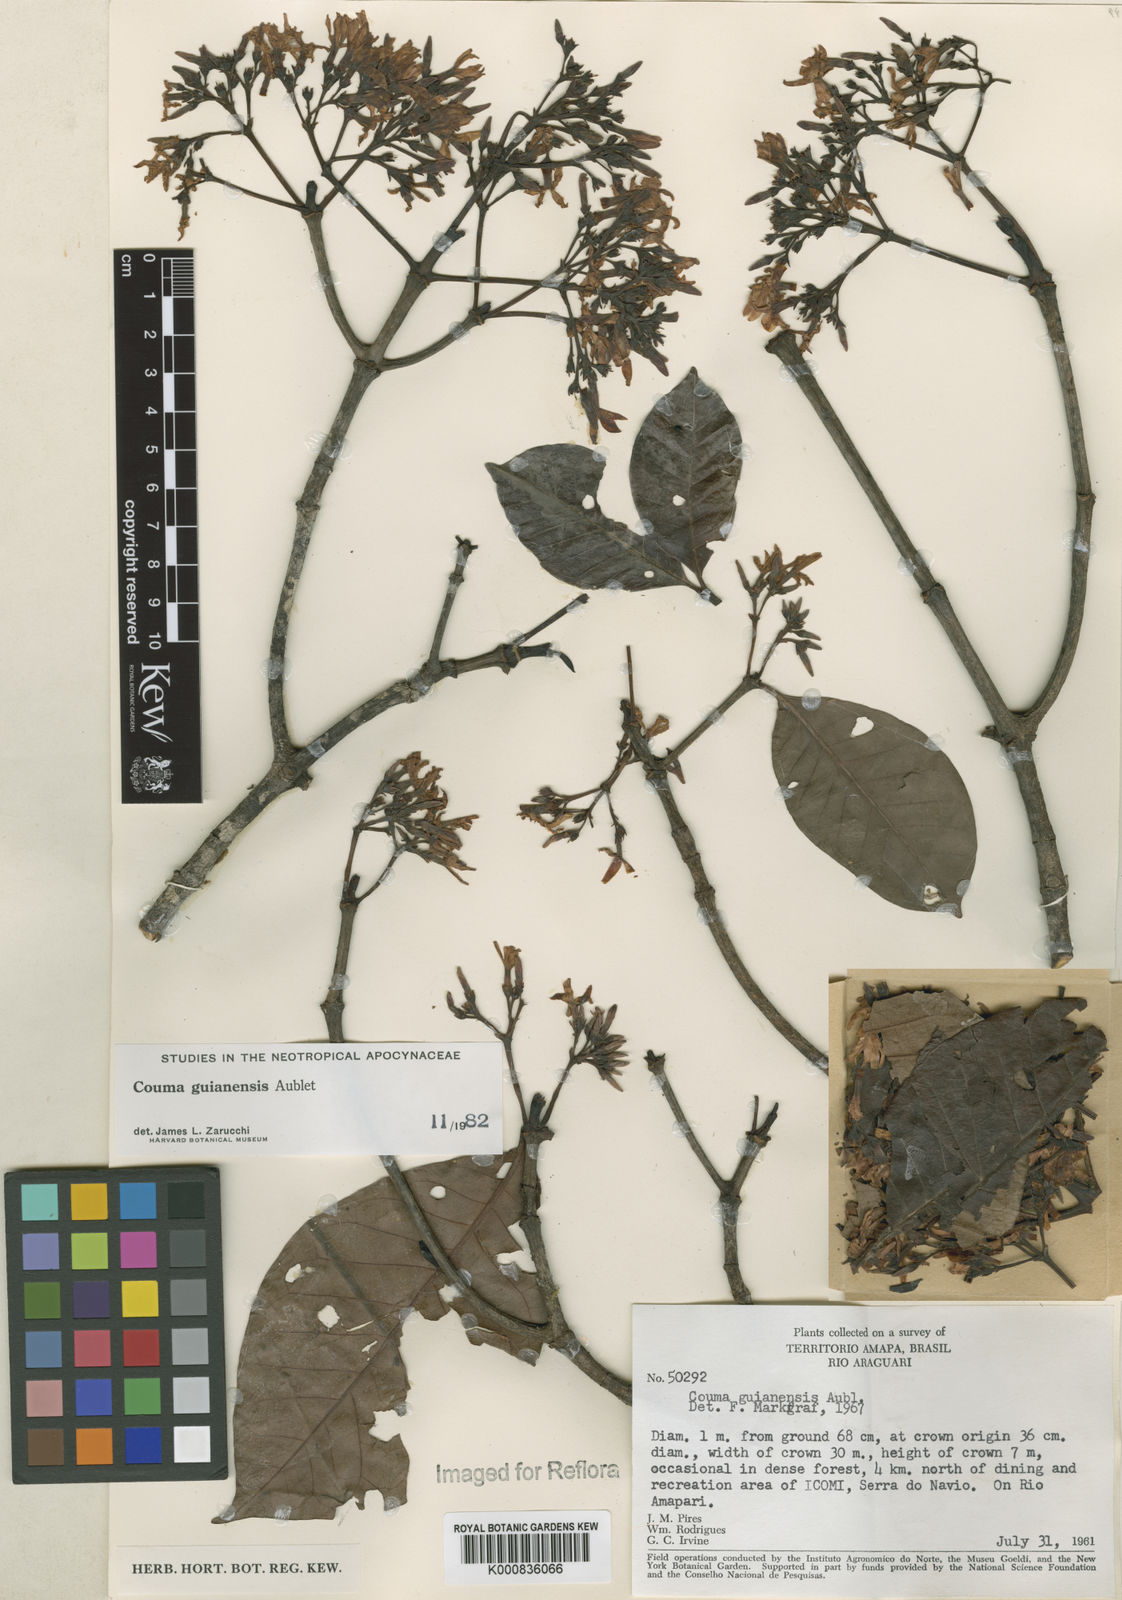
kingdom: Plantae
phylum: Tracheophyta
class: Magnoliopsida
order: Gentianales
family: Apocynaceae
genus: Couma
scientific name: Couma guianensis
